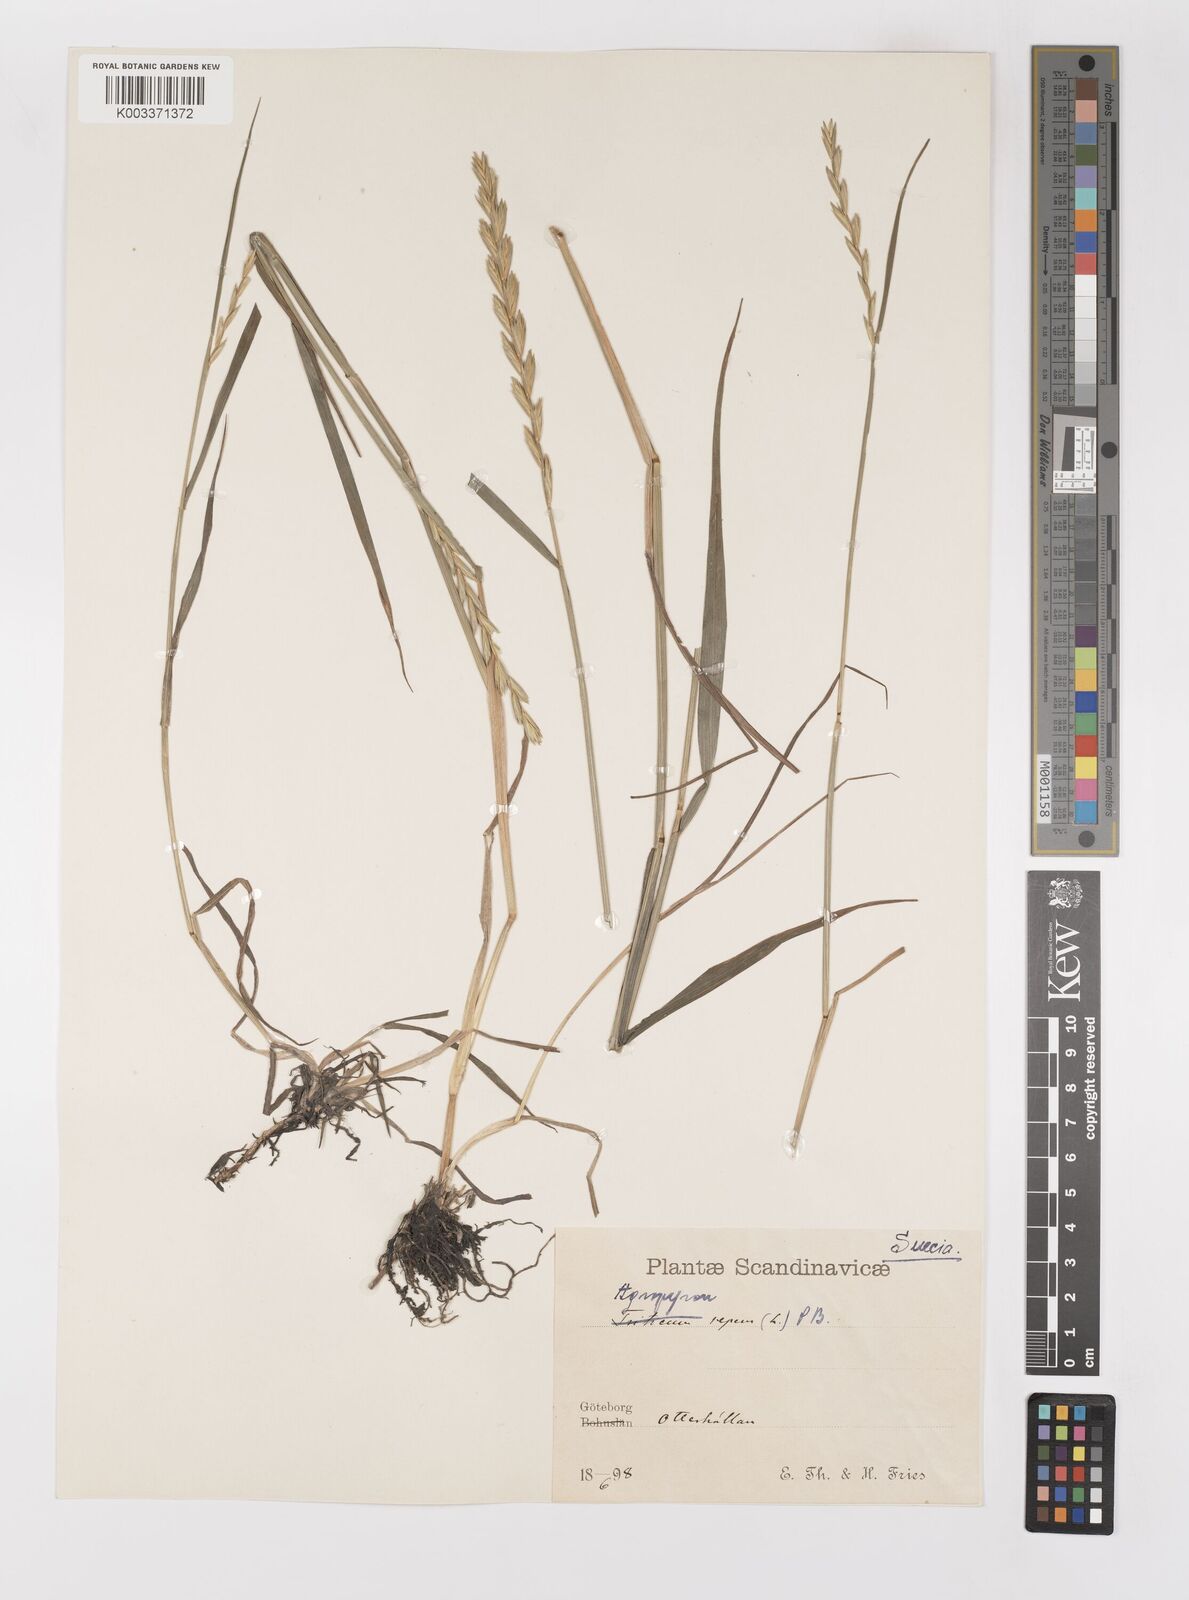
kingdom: Plantae
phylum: Tracheophyta
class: Liliopsida
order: Poales
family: Poaceae
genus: Elymus
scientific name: Elymus repens
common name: Quackgrass
